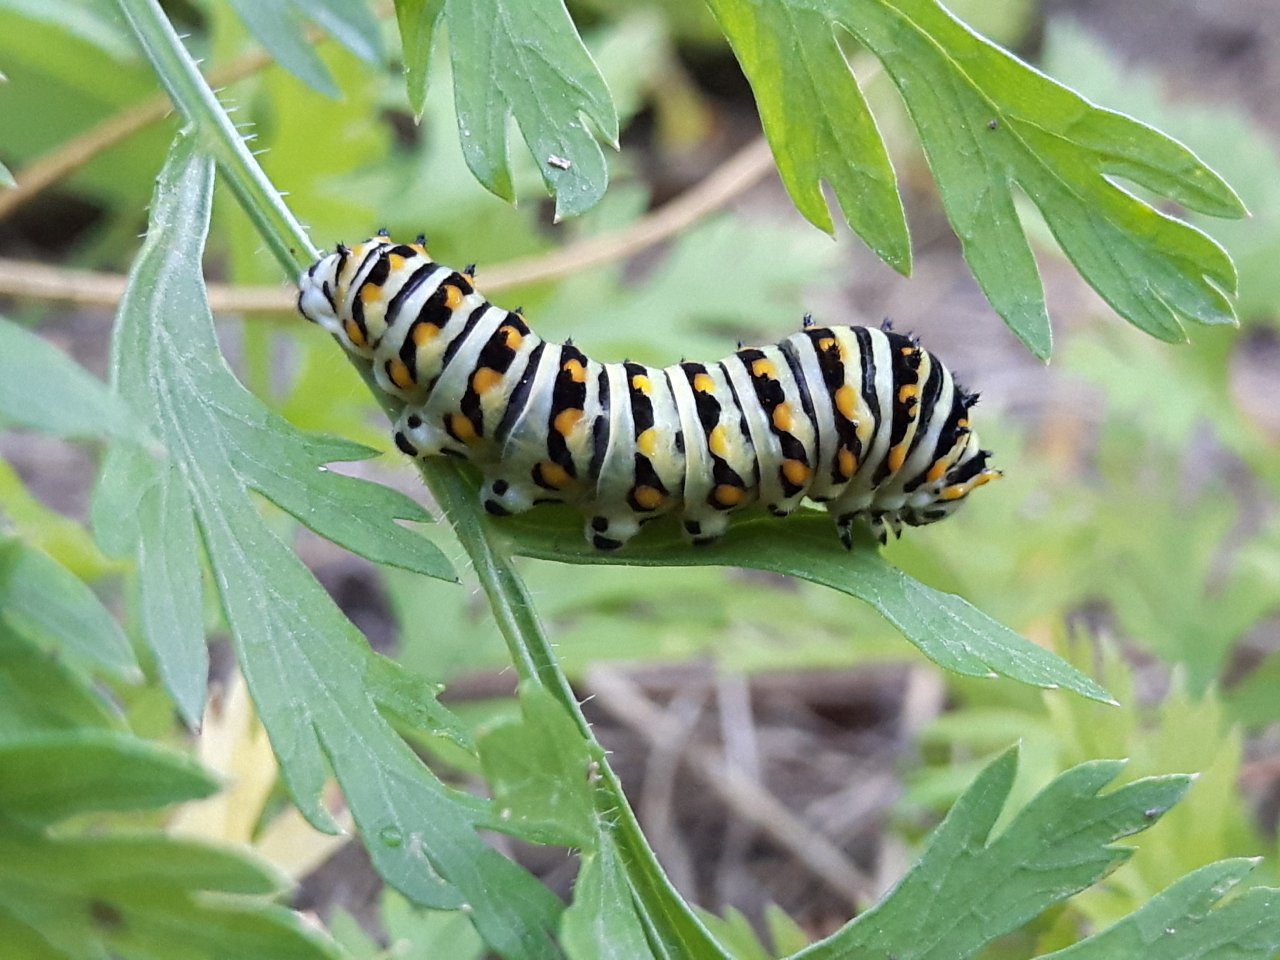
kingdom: Animalia
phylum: Arthropoda
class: Insecta
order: Lepidoptera
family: Papilionidae
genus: Papilio
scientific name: Papilio polyxenes
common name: Black Swallowtail
